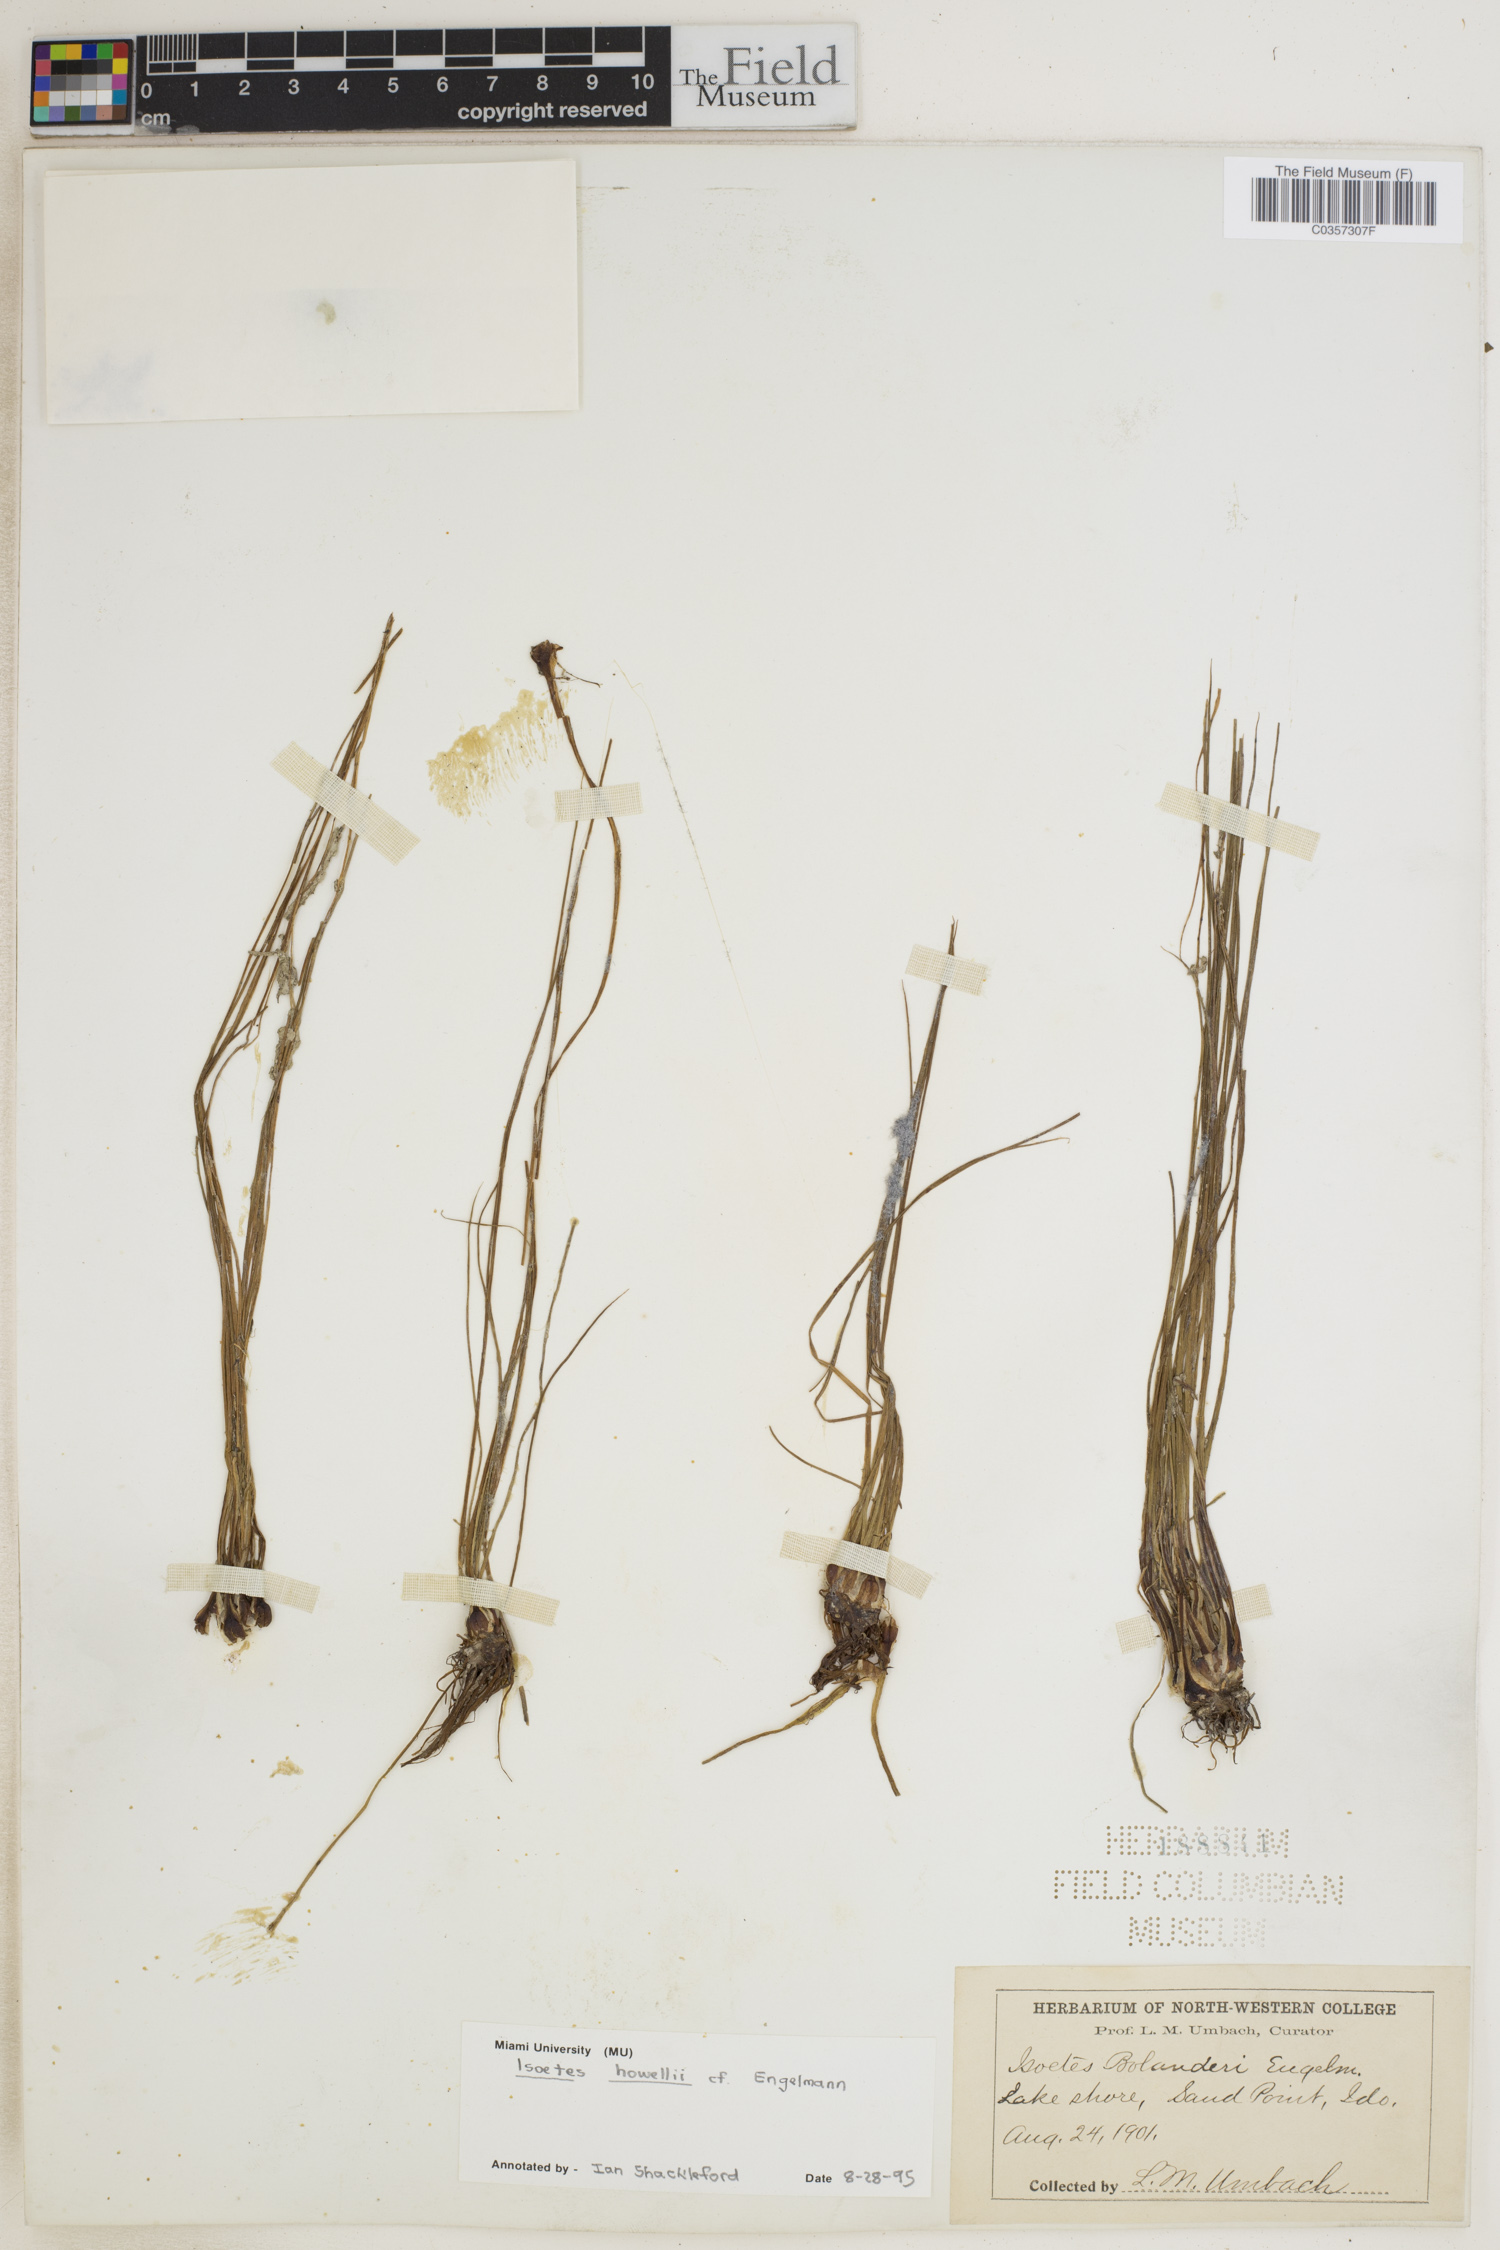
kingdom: Plantae
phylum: Tracheophyta
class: Lycopodiopsida
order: Isoetales
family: Isoetaceae
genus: Isoetes
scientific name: Isoetes howellii
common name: Howell's quillwort
